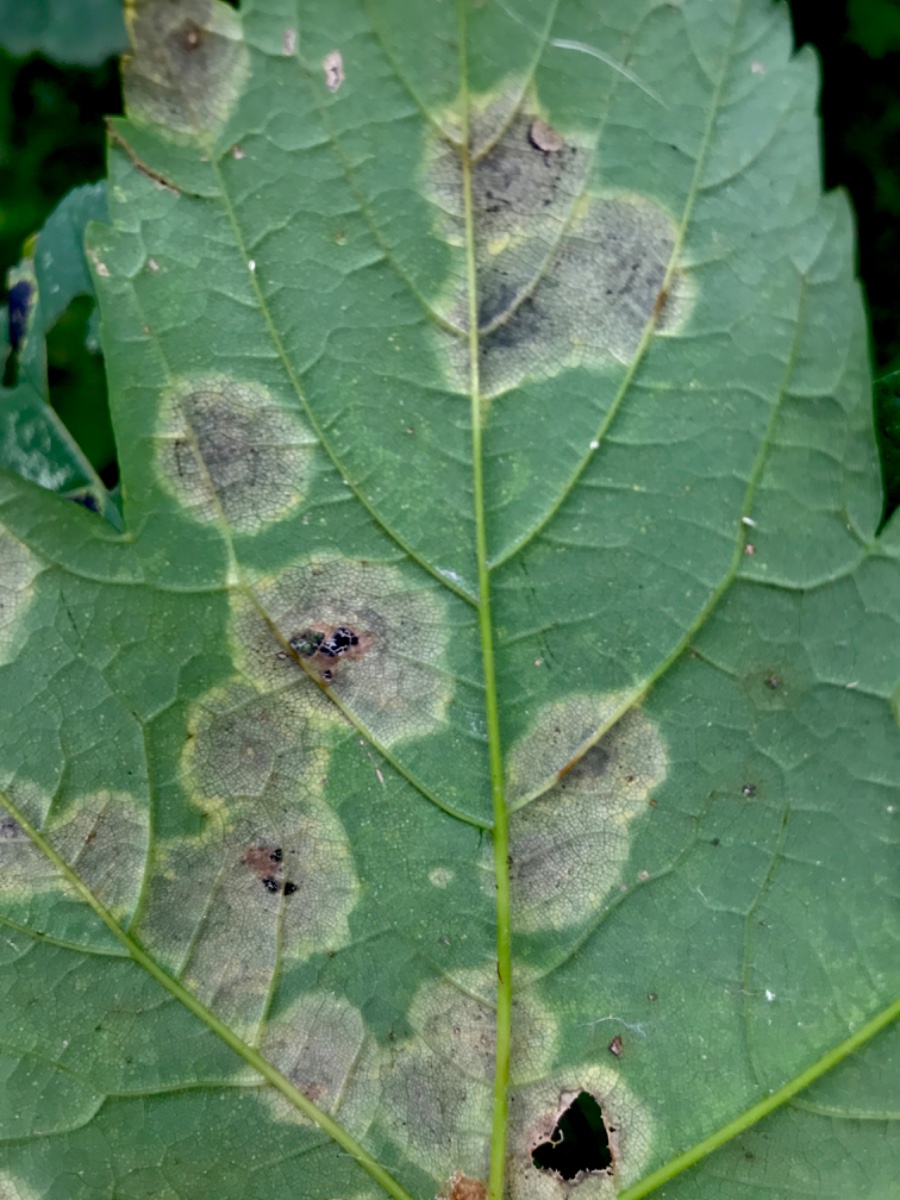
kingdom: Fungi
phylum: Ascomycota
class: Leotiomycetes
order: Rhytismatales
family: Rhytismataceae
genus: Rhytisma
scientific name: Rhytisma acerinum
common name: ahorn-rynkeplet
